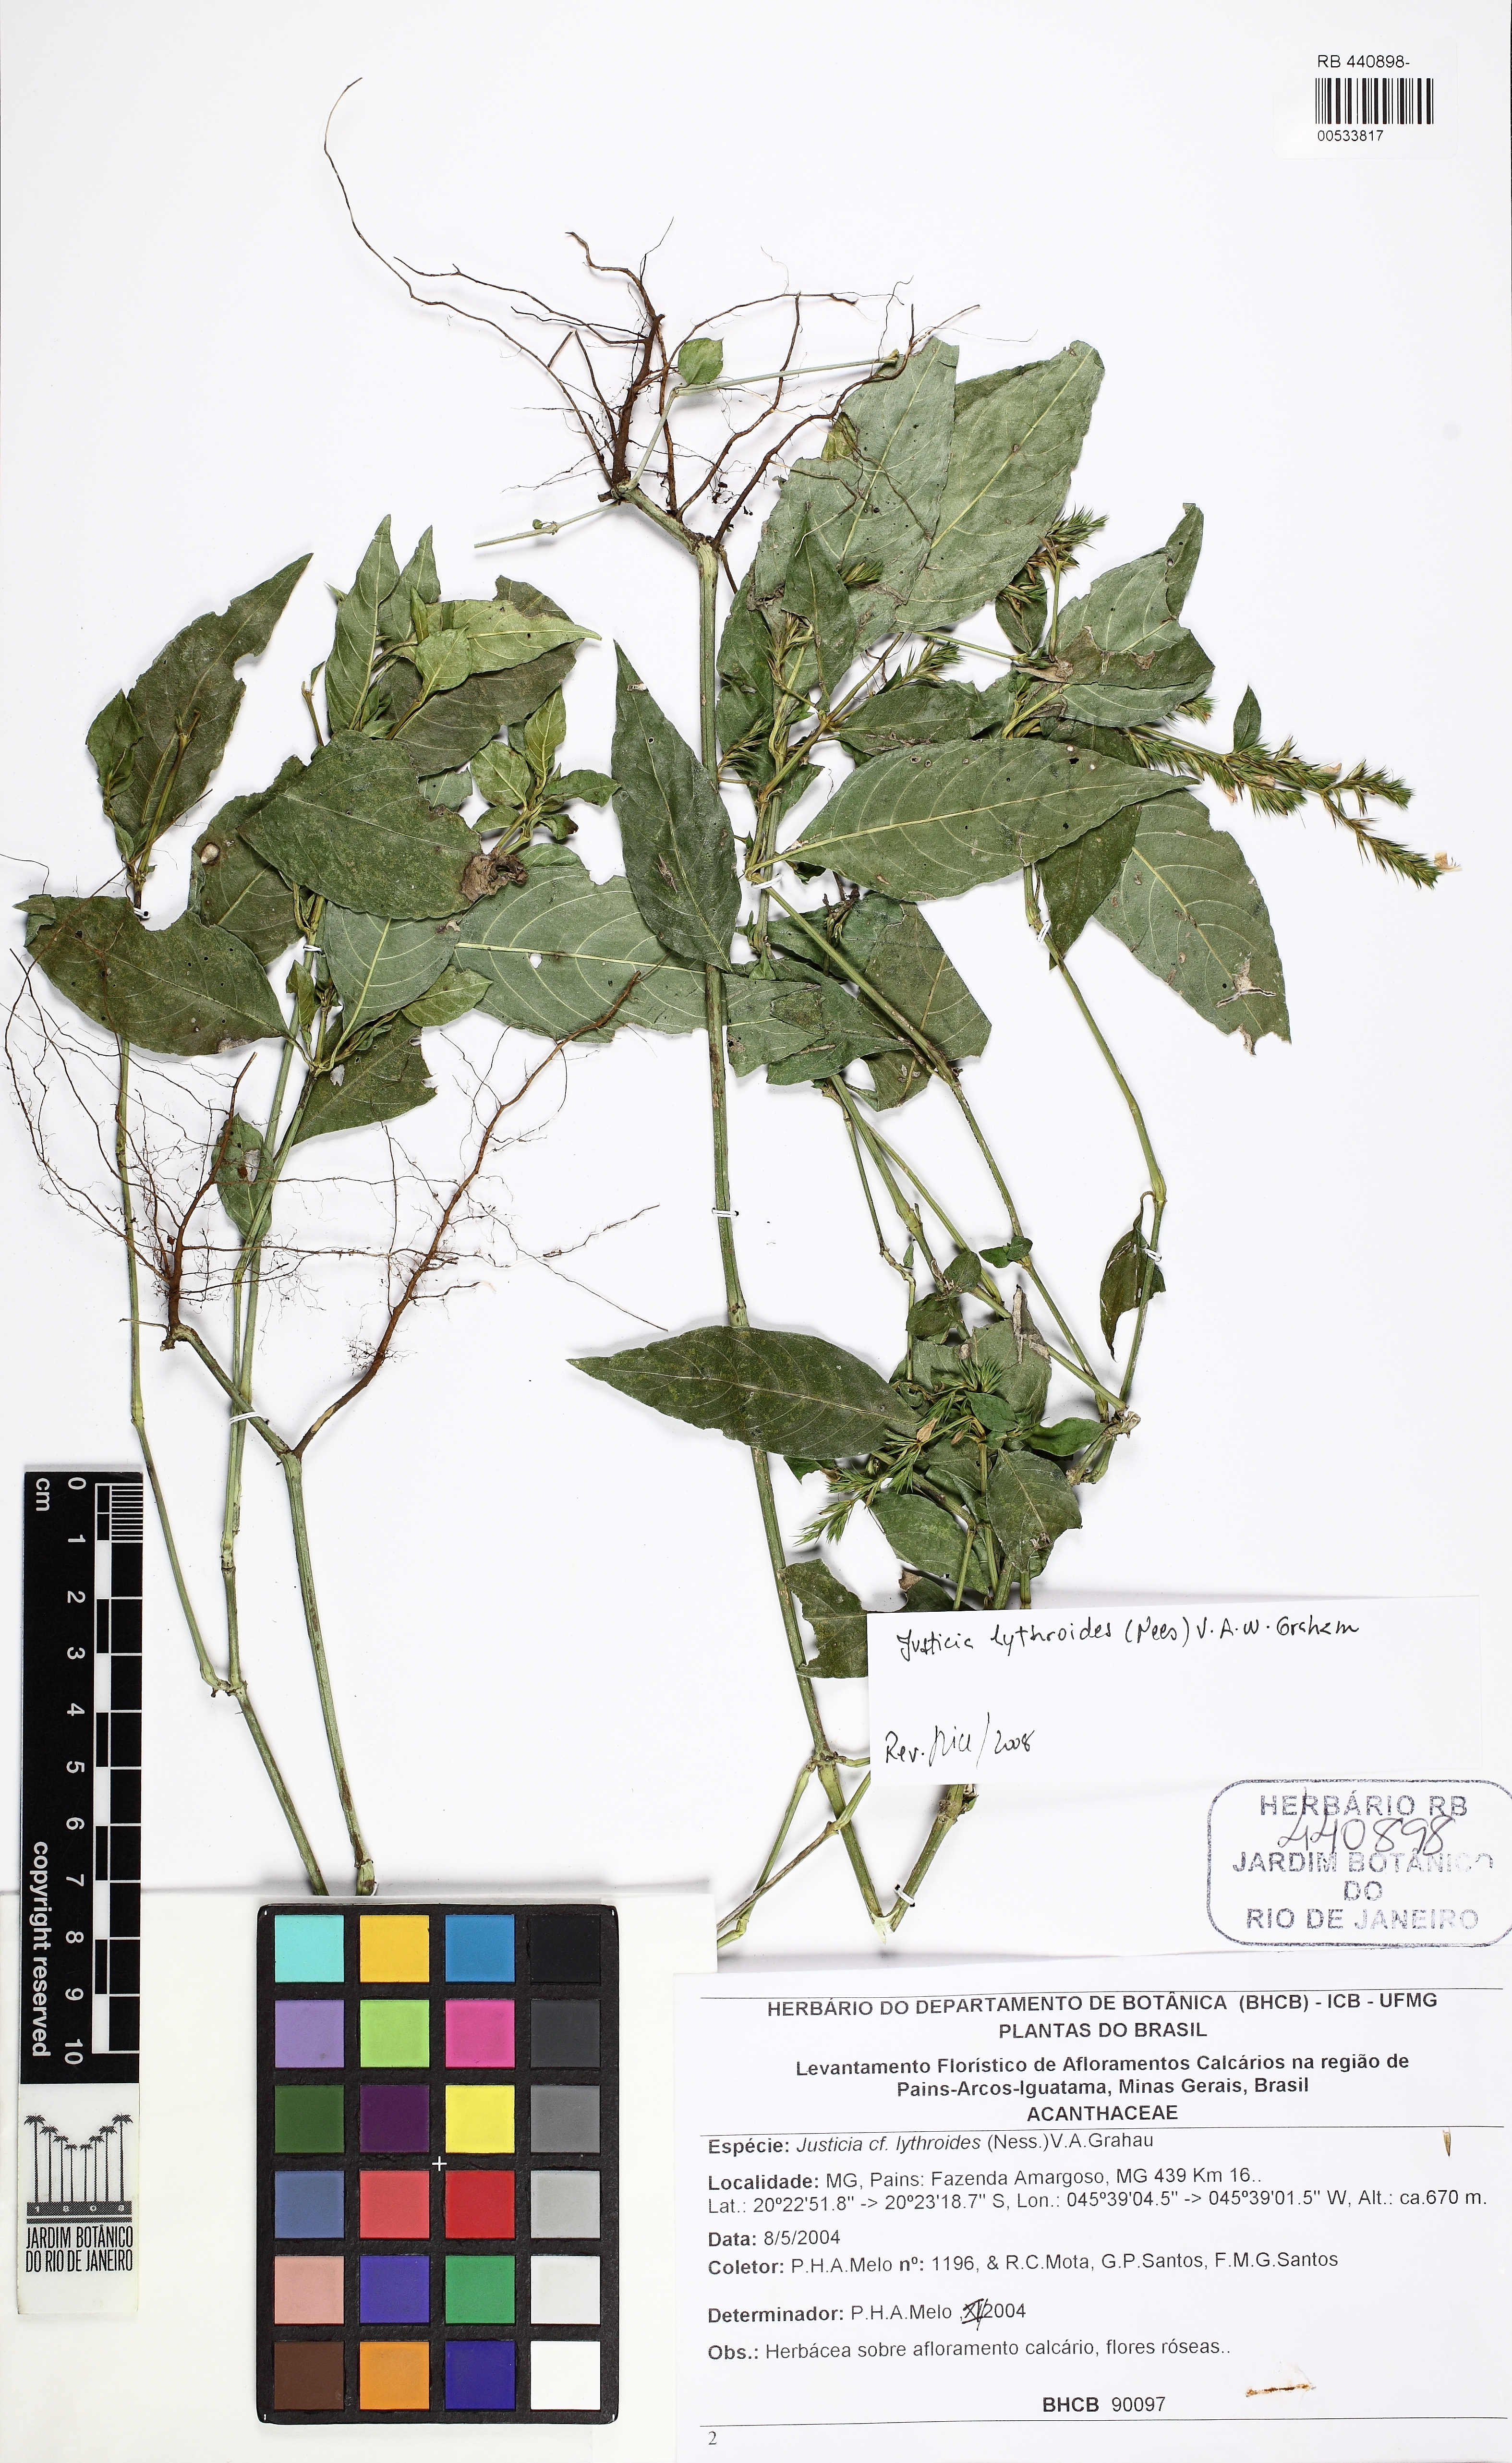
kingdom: Plantae
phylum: Tracheophyta
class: Magnoliopsida
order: Lamiales
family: Acanthaceae
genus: Justicia
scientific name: Justicia lythroides
